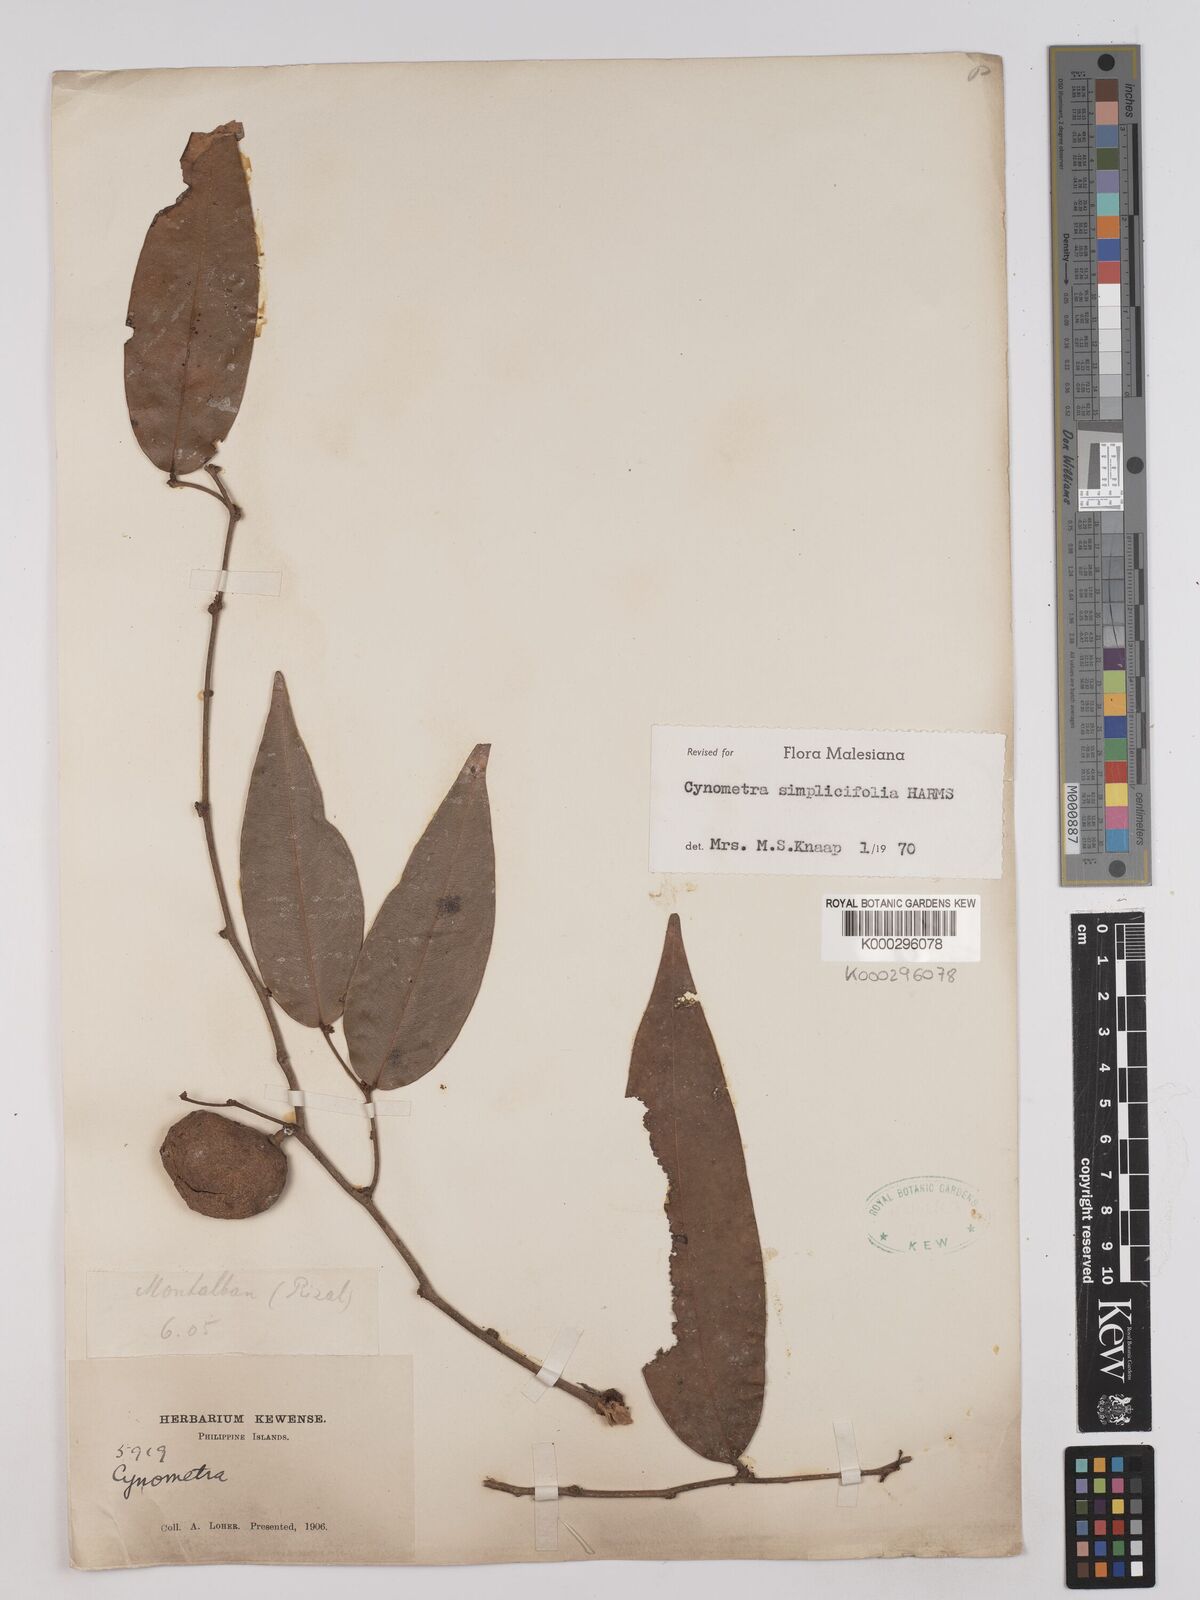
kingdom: Plantae
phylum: Tracheophyta
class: Magnoliopsida
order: Fabales
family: Fabaceae
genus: Cynometra
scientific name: Cynometra simplicifolia
